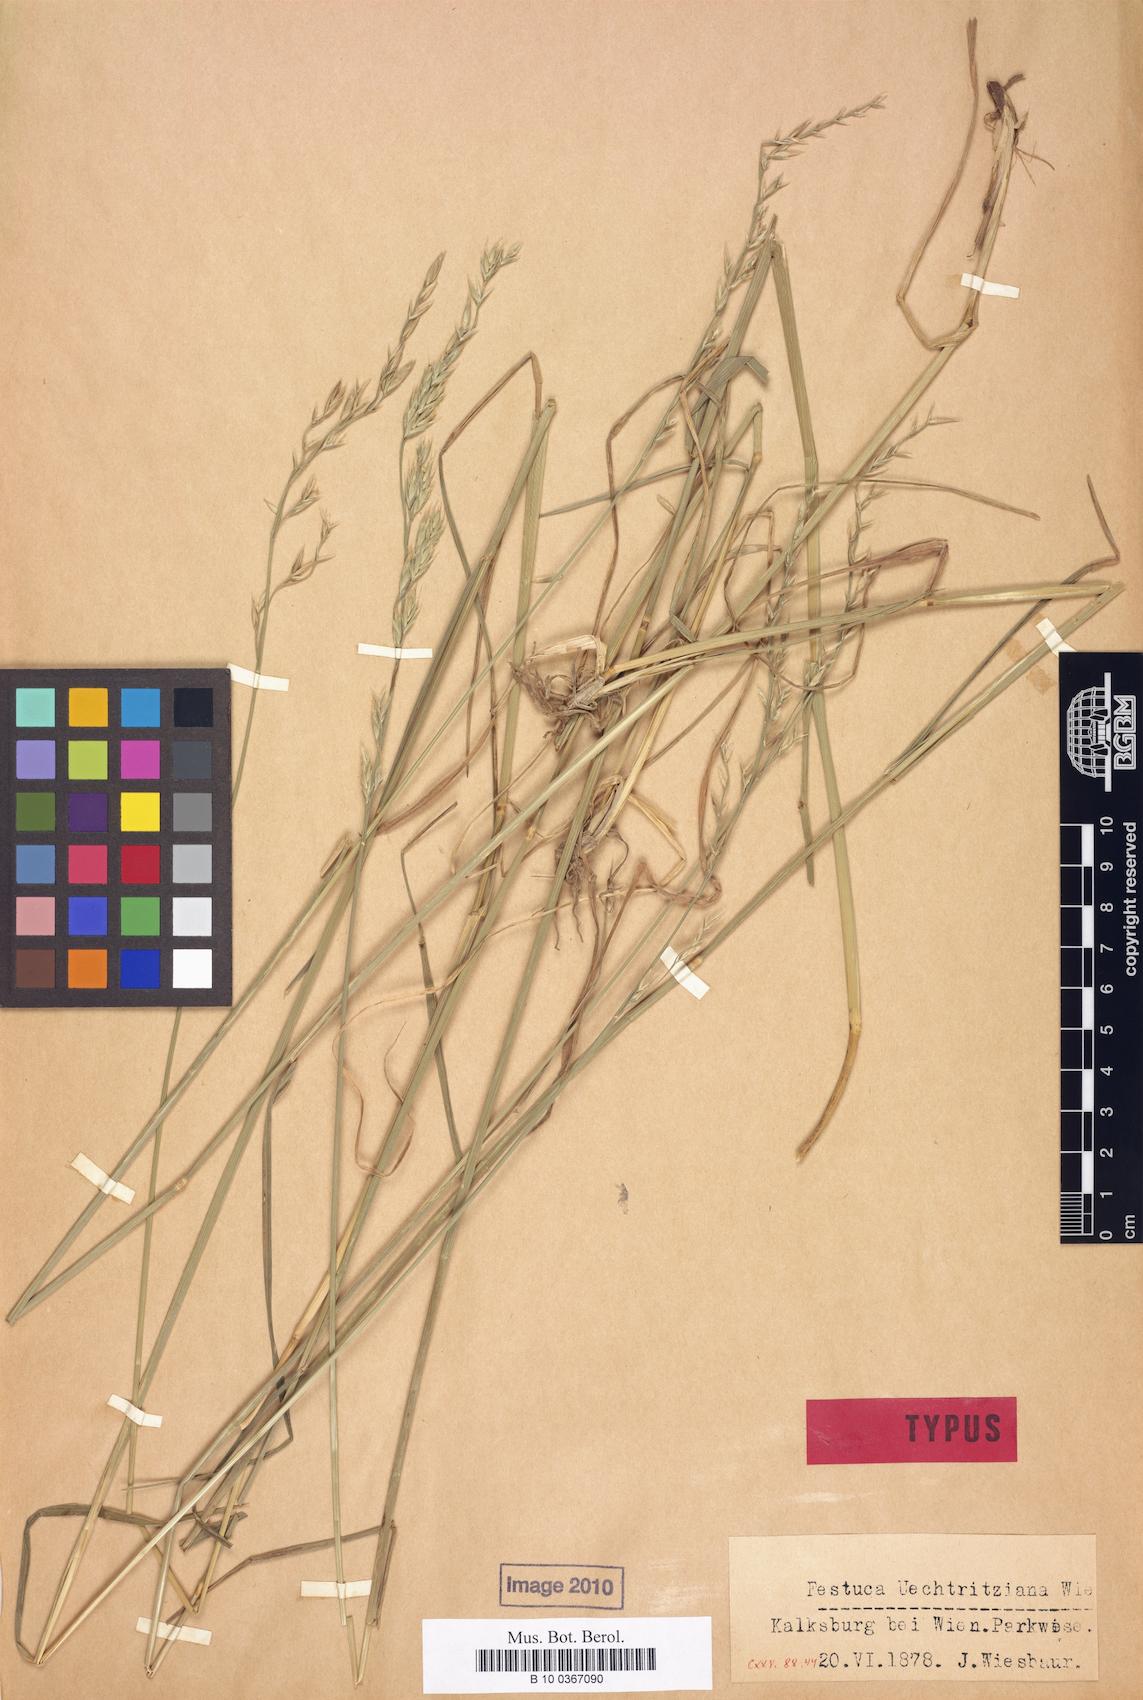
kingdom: Plantae
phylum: Tracheophyta
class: Liliopsida
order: Poales
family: Poaceae
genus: Lolium
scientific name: Lolium arundinaceum
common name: Reed fescue
